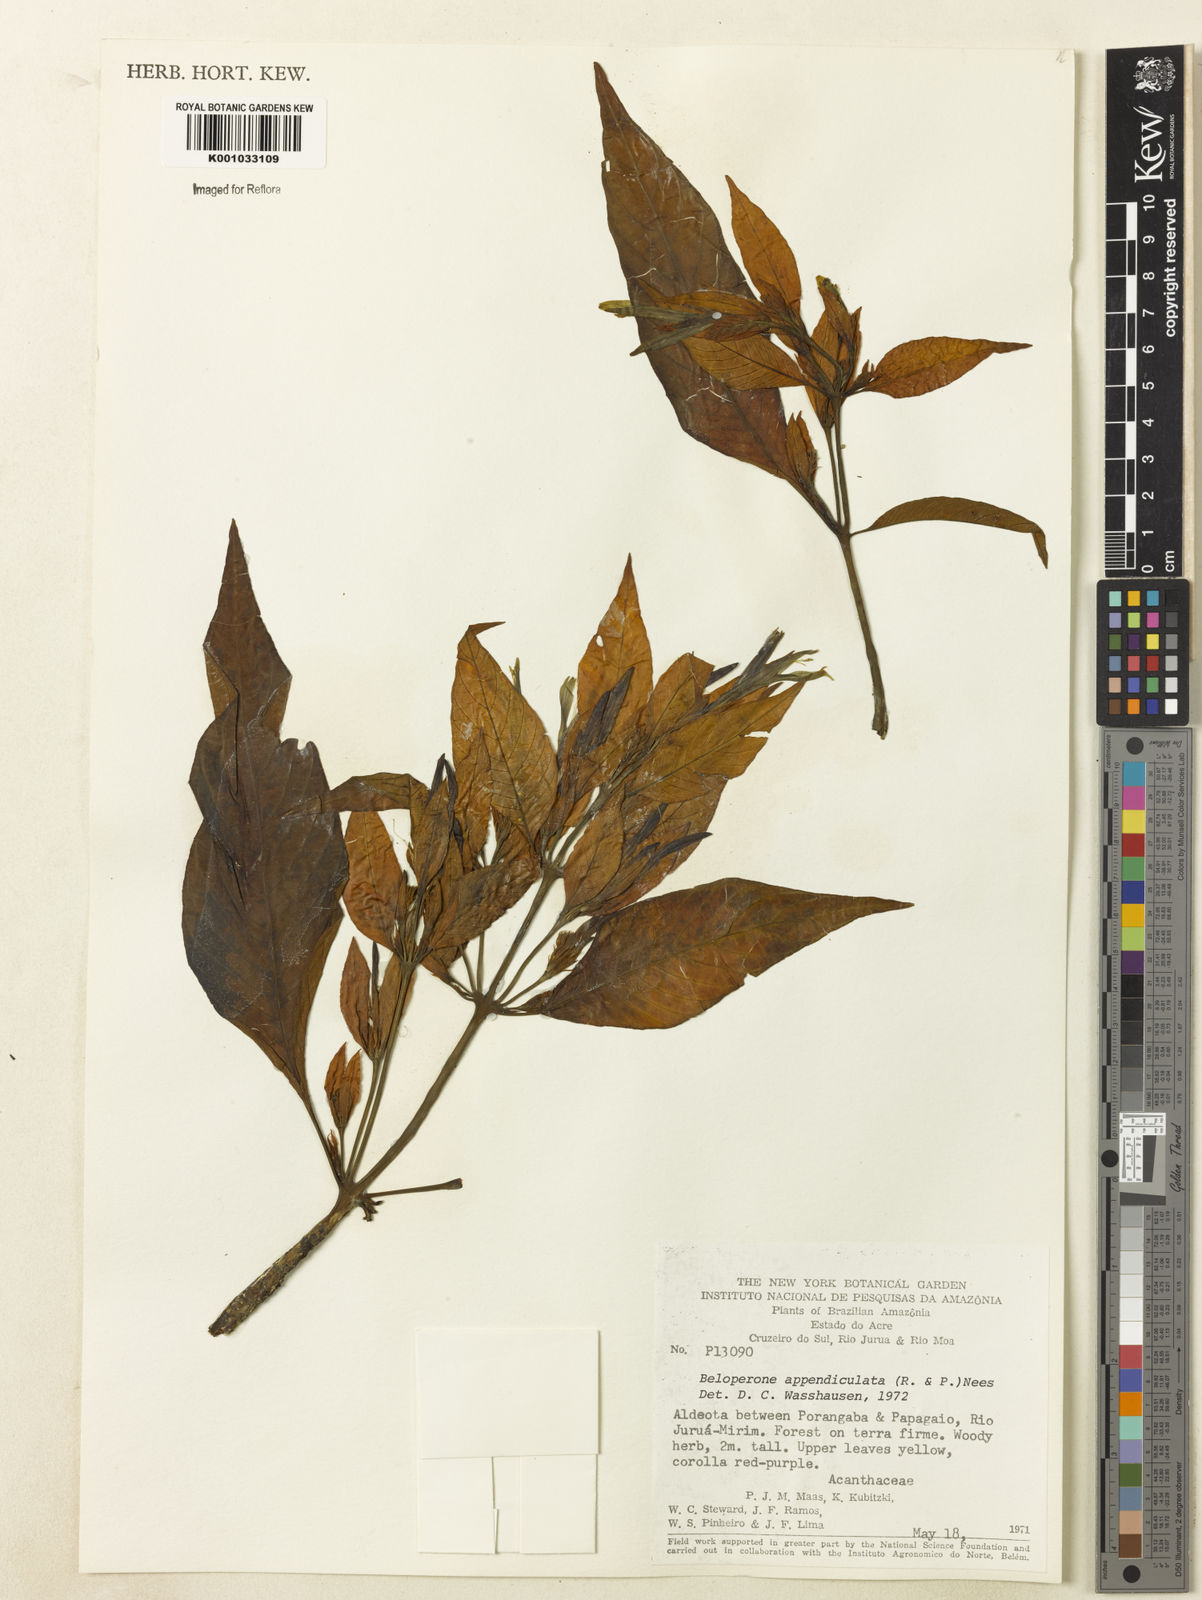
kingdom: Plantae
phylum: Tracheophyta
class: Magnoliopsida
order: Lamiales
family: Acanthaceae
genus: Dianthera
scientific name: Dianthera appendiculata
